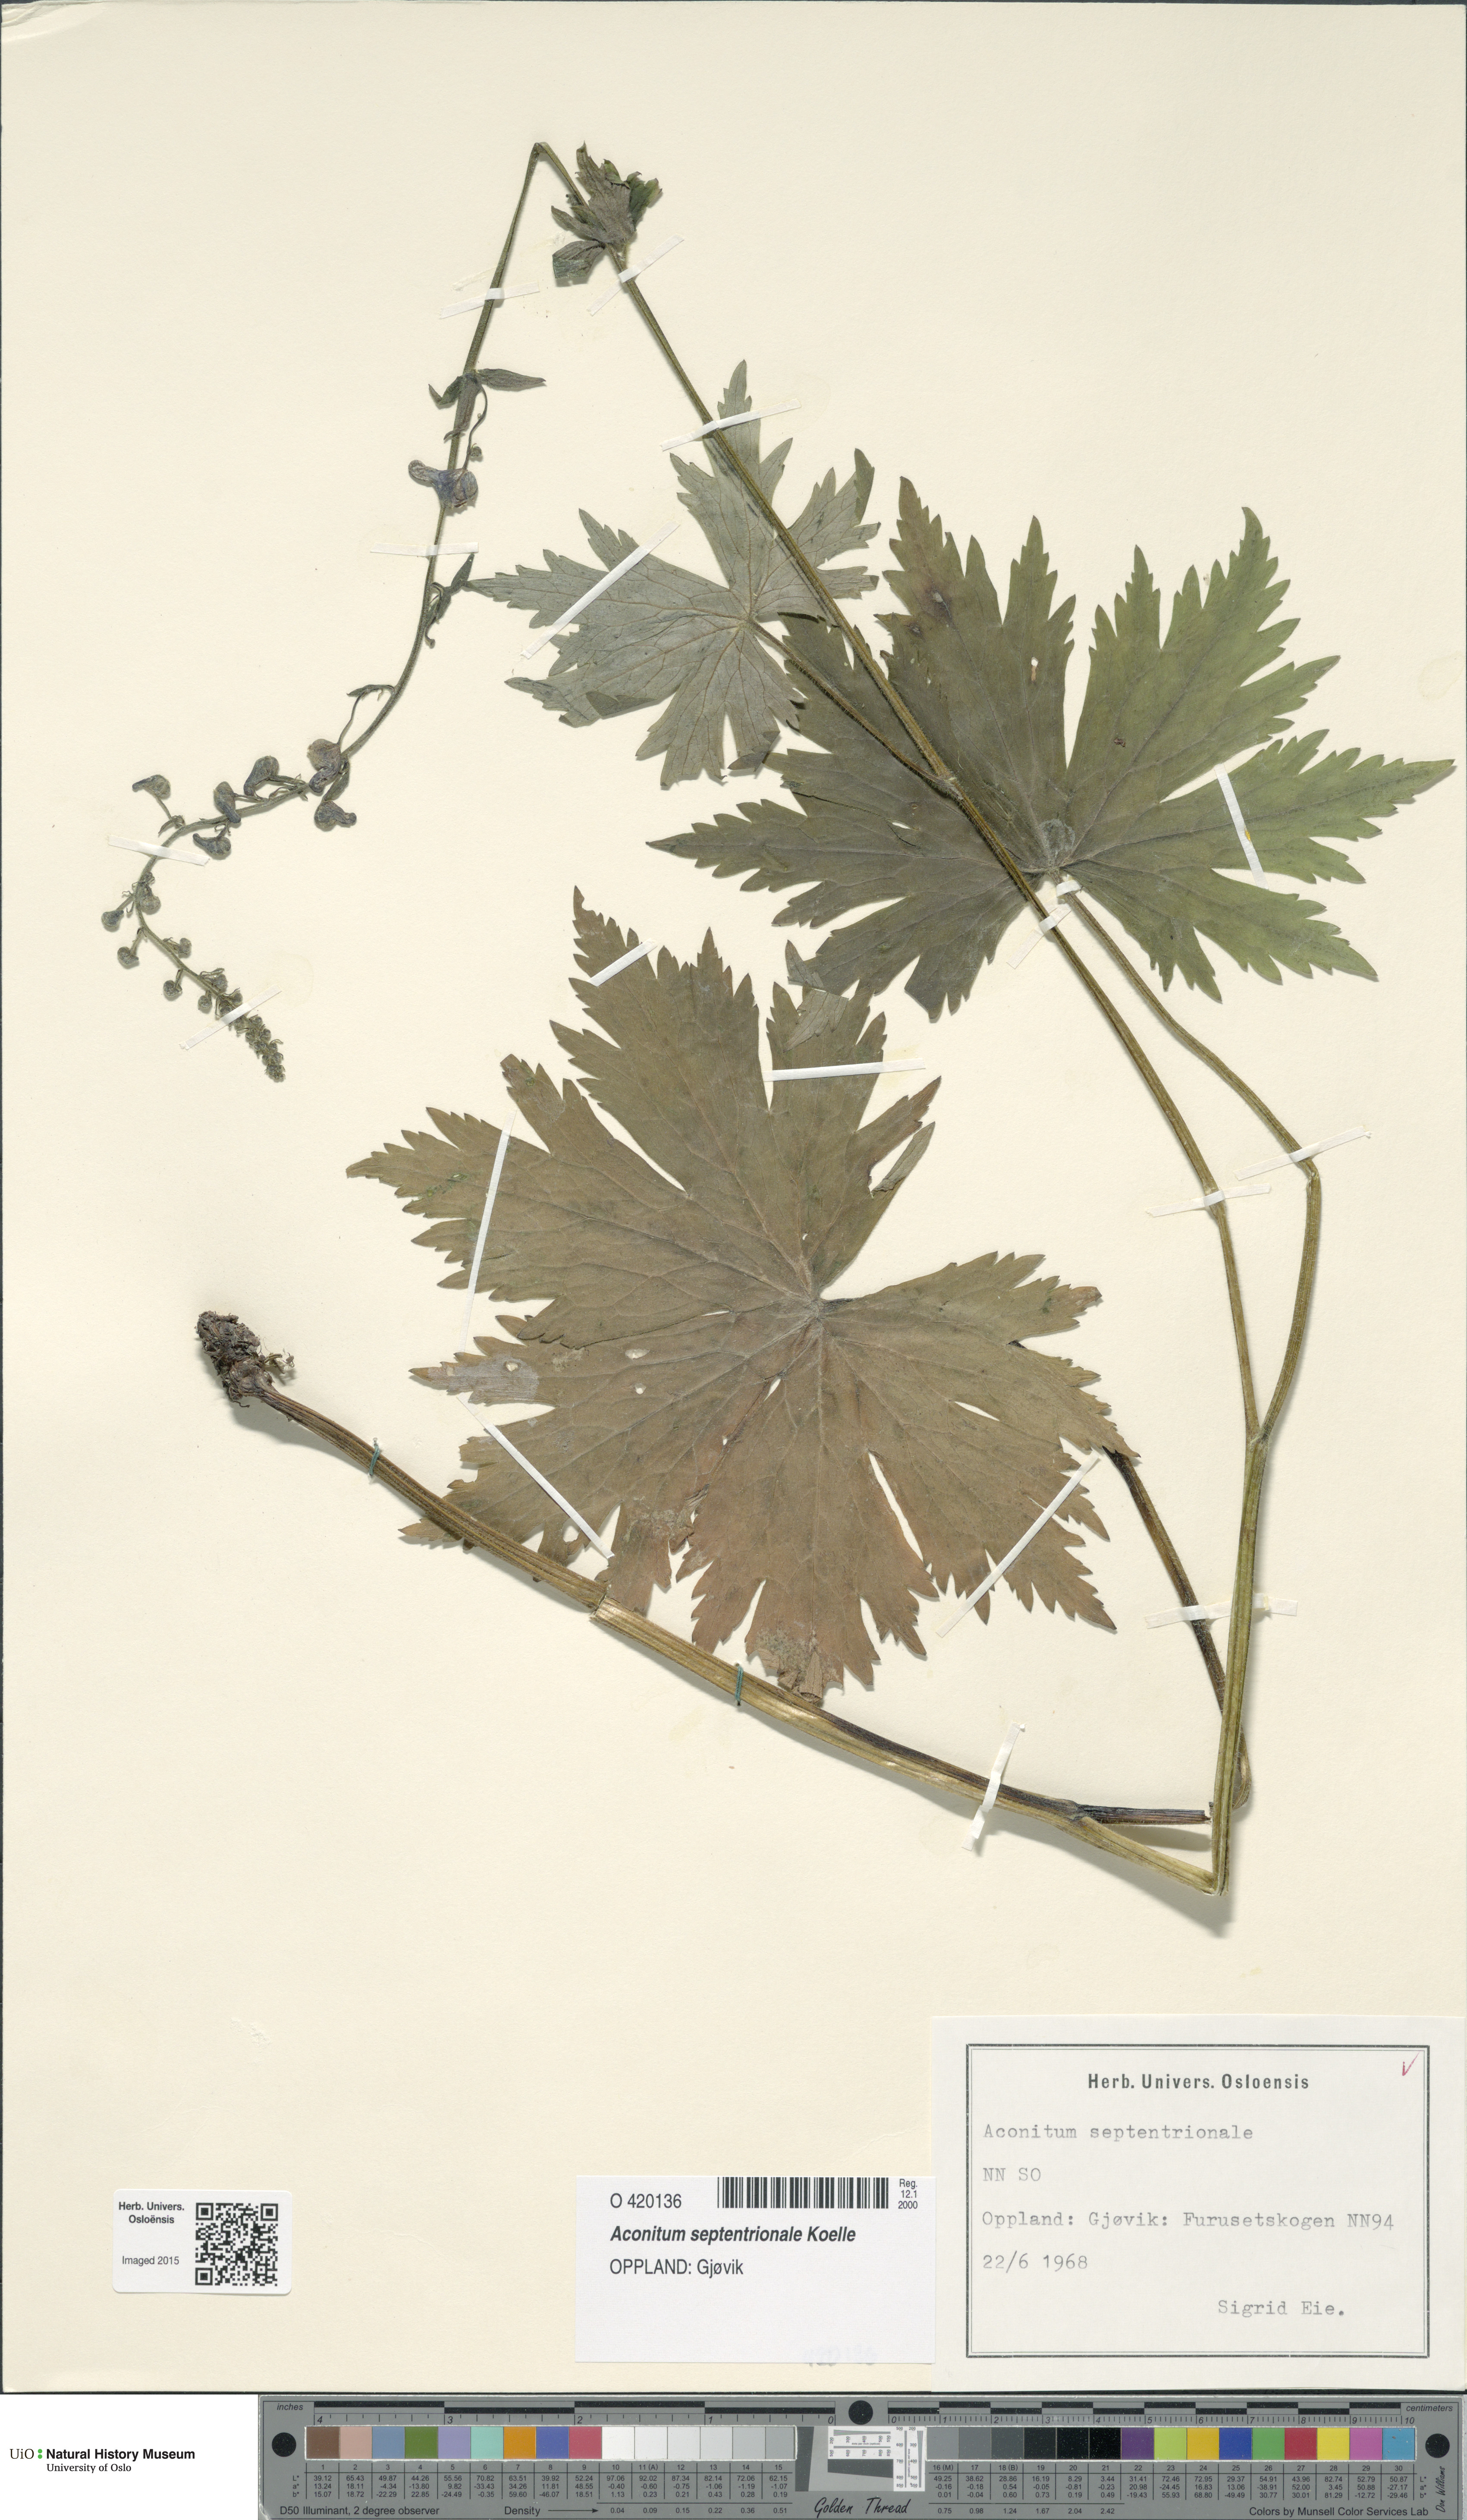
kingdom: Plantae
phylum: Tracheophyta
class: Magnoliopsida
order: Ranunculales
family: Ranunculaceae
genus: Aconitum
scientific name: Aconitum septentrionale
